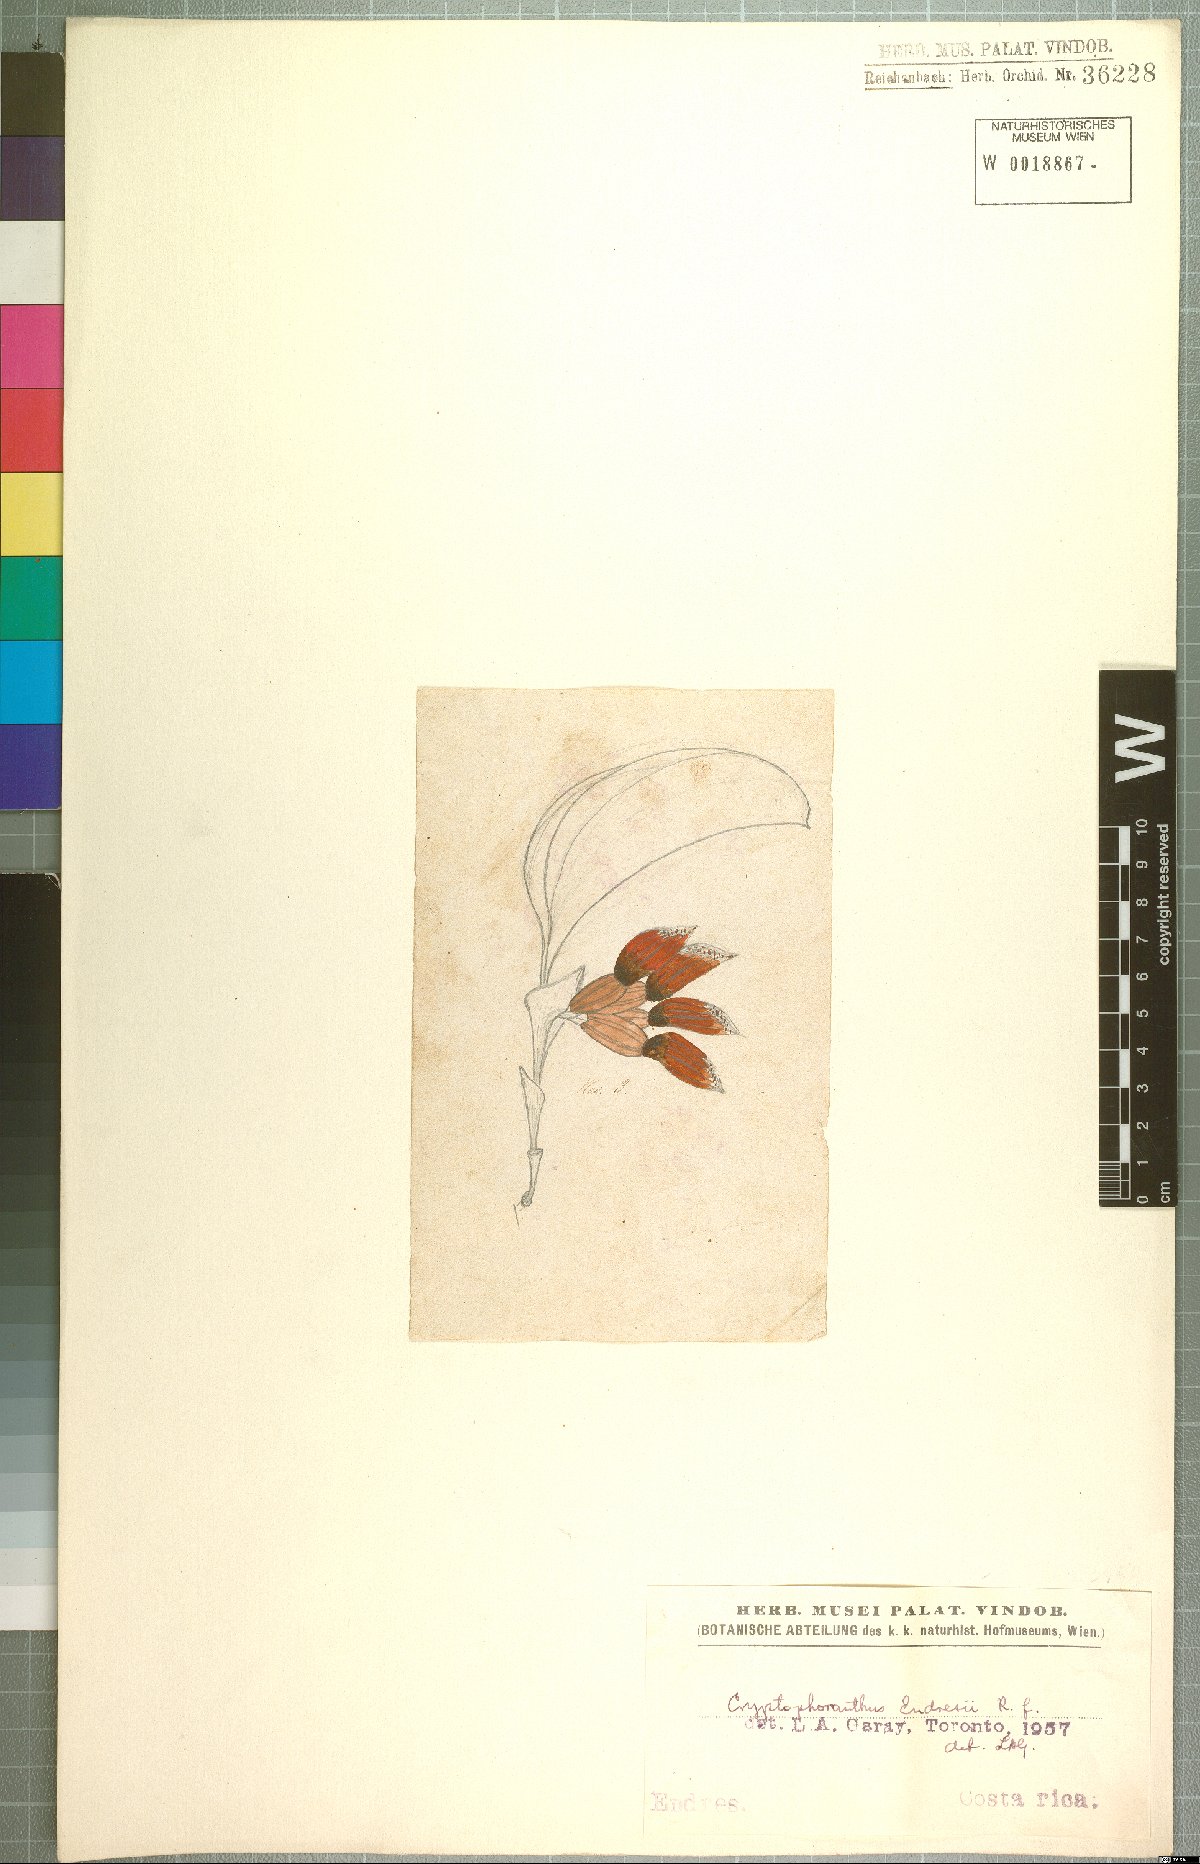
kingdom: Plantae
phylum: Tracheophyta
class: Liliopsida
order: Asparagales
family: Orchidaceae
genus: Zootrophion
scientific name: Zootrophion endresianum
